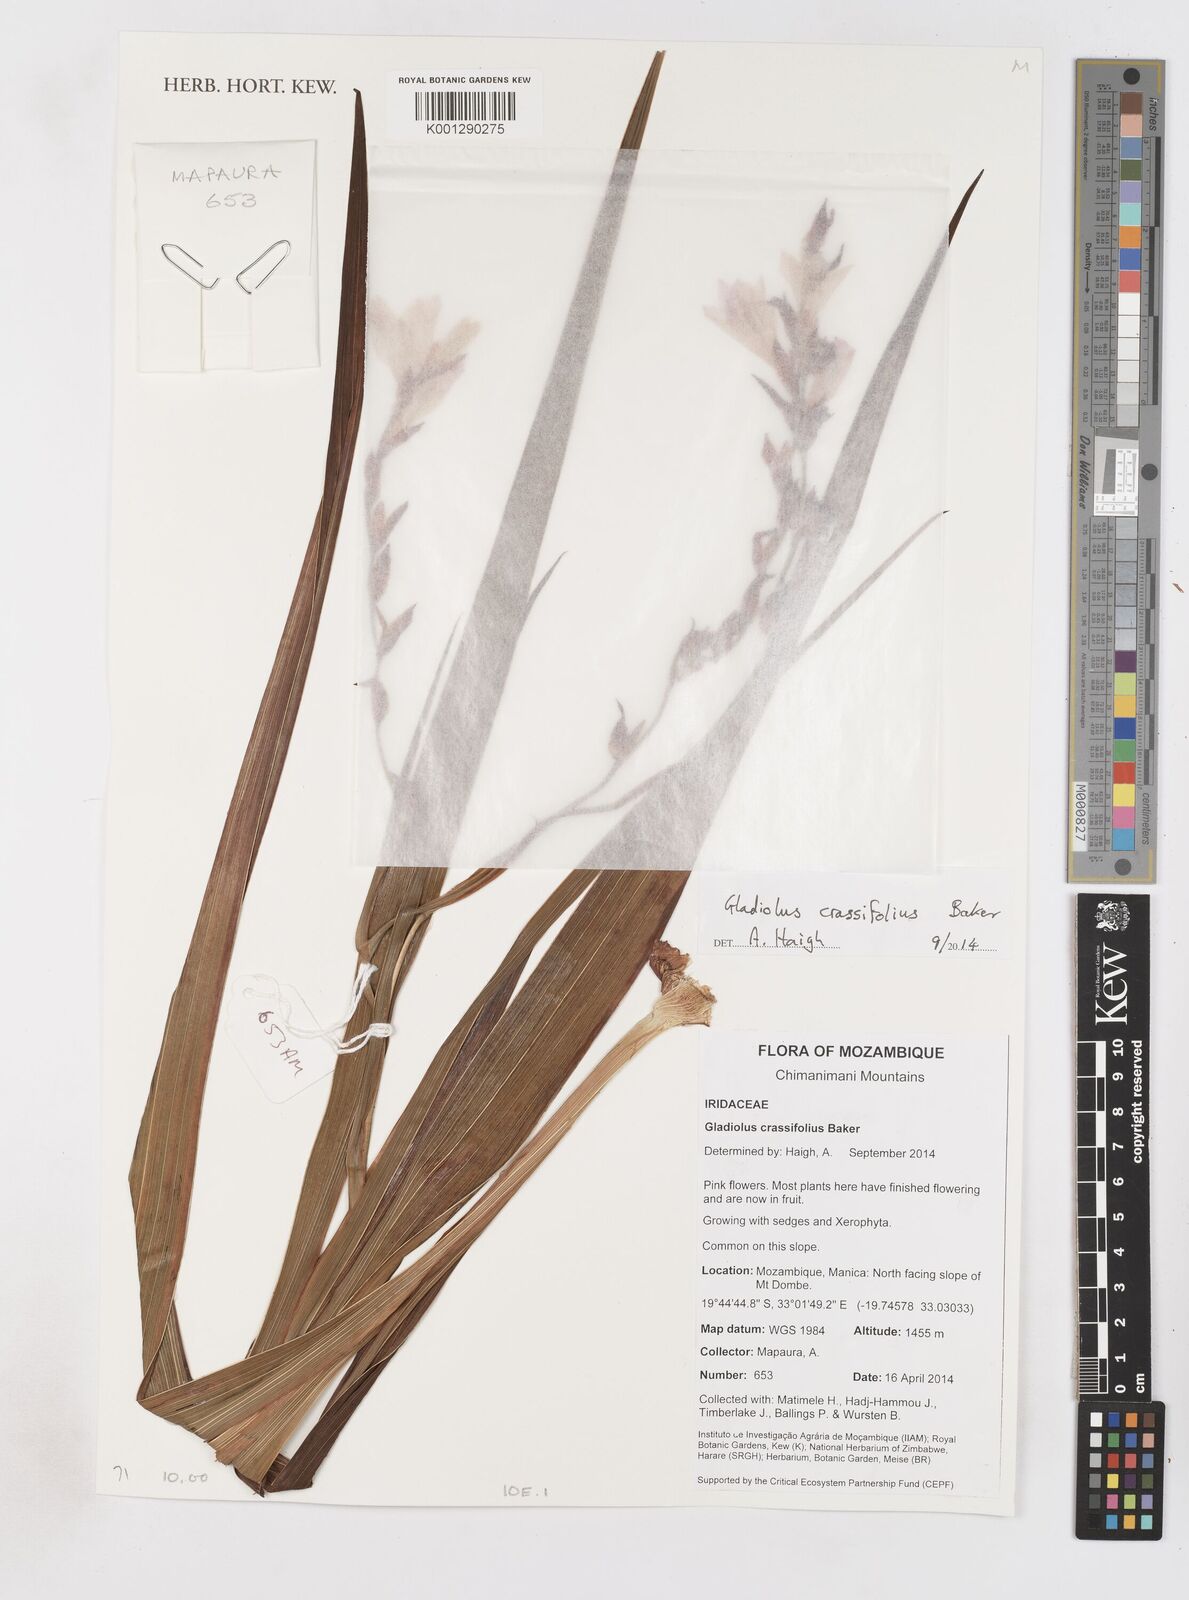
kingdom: Plantae
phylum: Tracheophyta
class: Liliopsida
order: Asparagales
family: Iridaceae
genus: Gladiolus
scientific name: Gladiolus crassifolius
